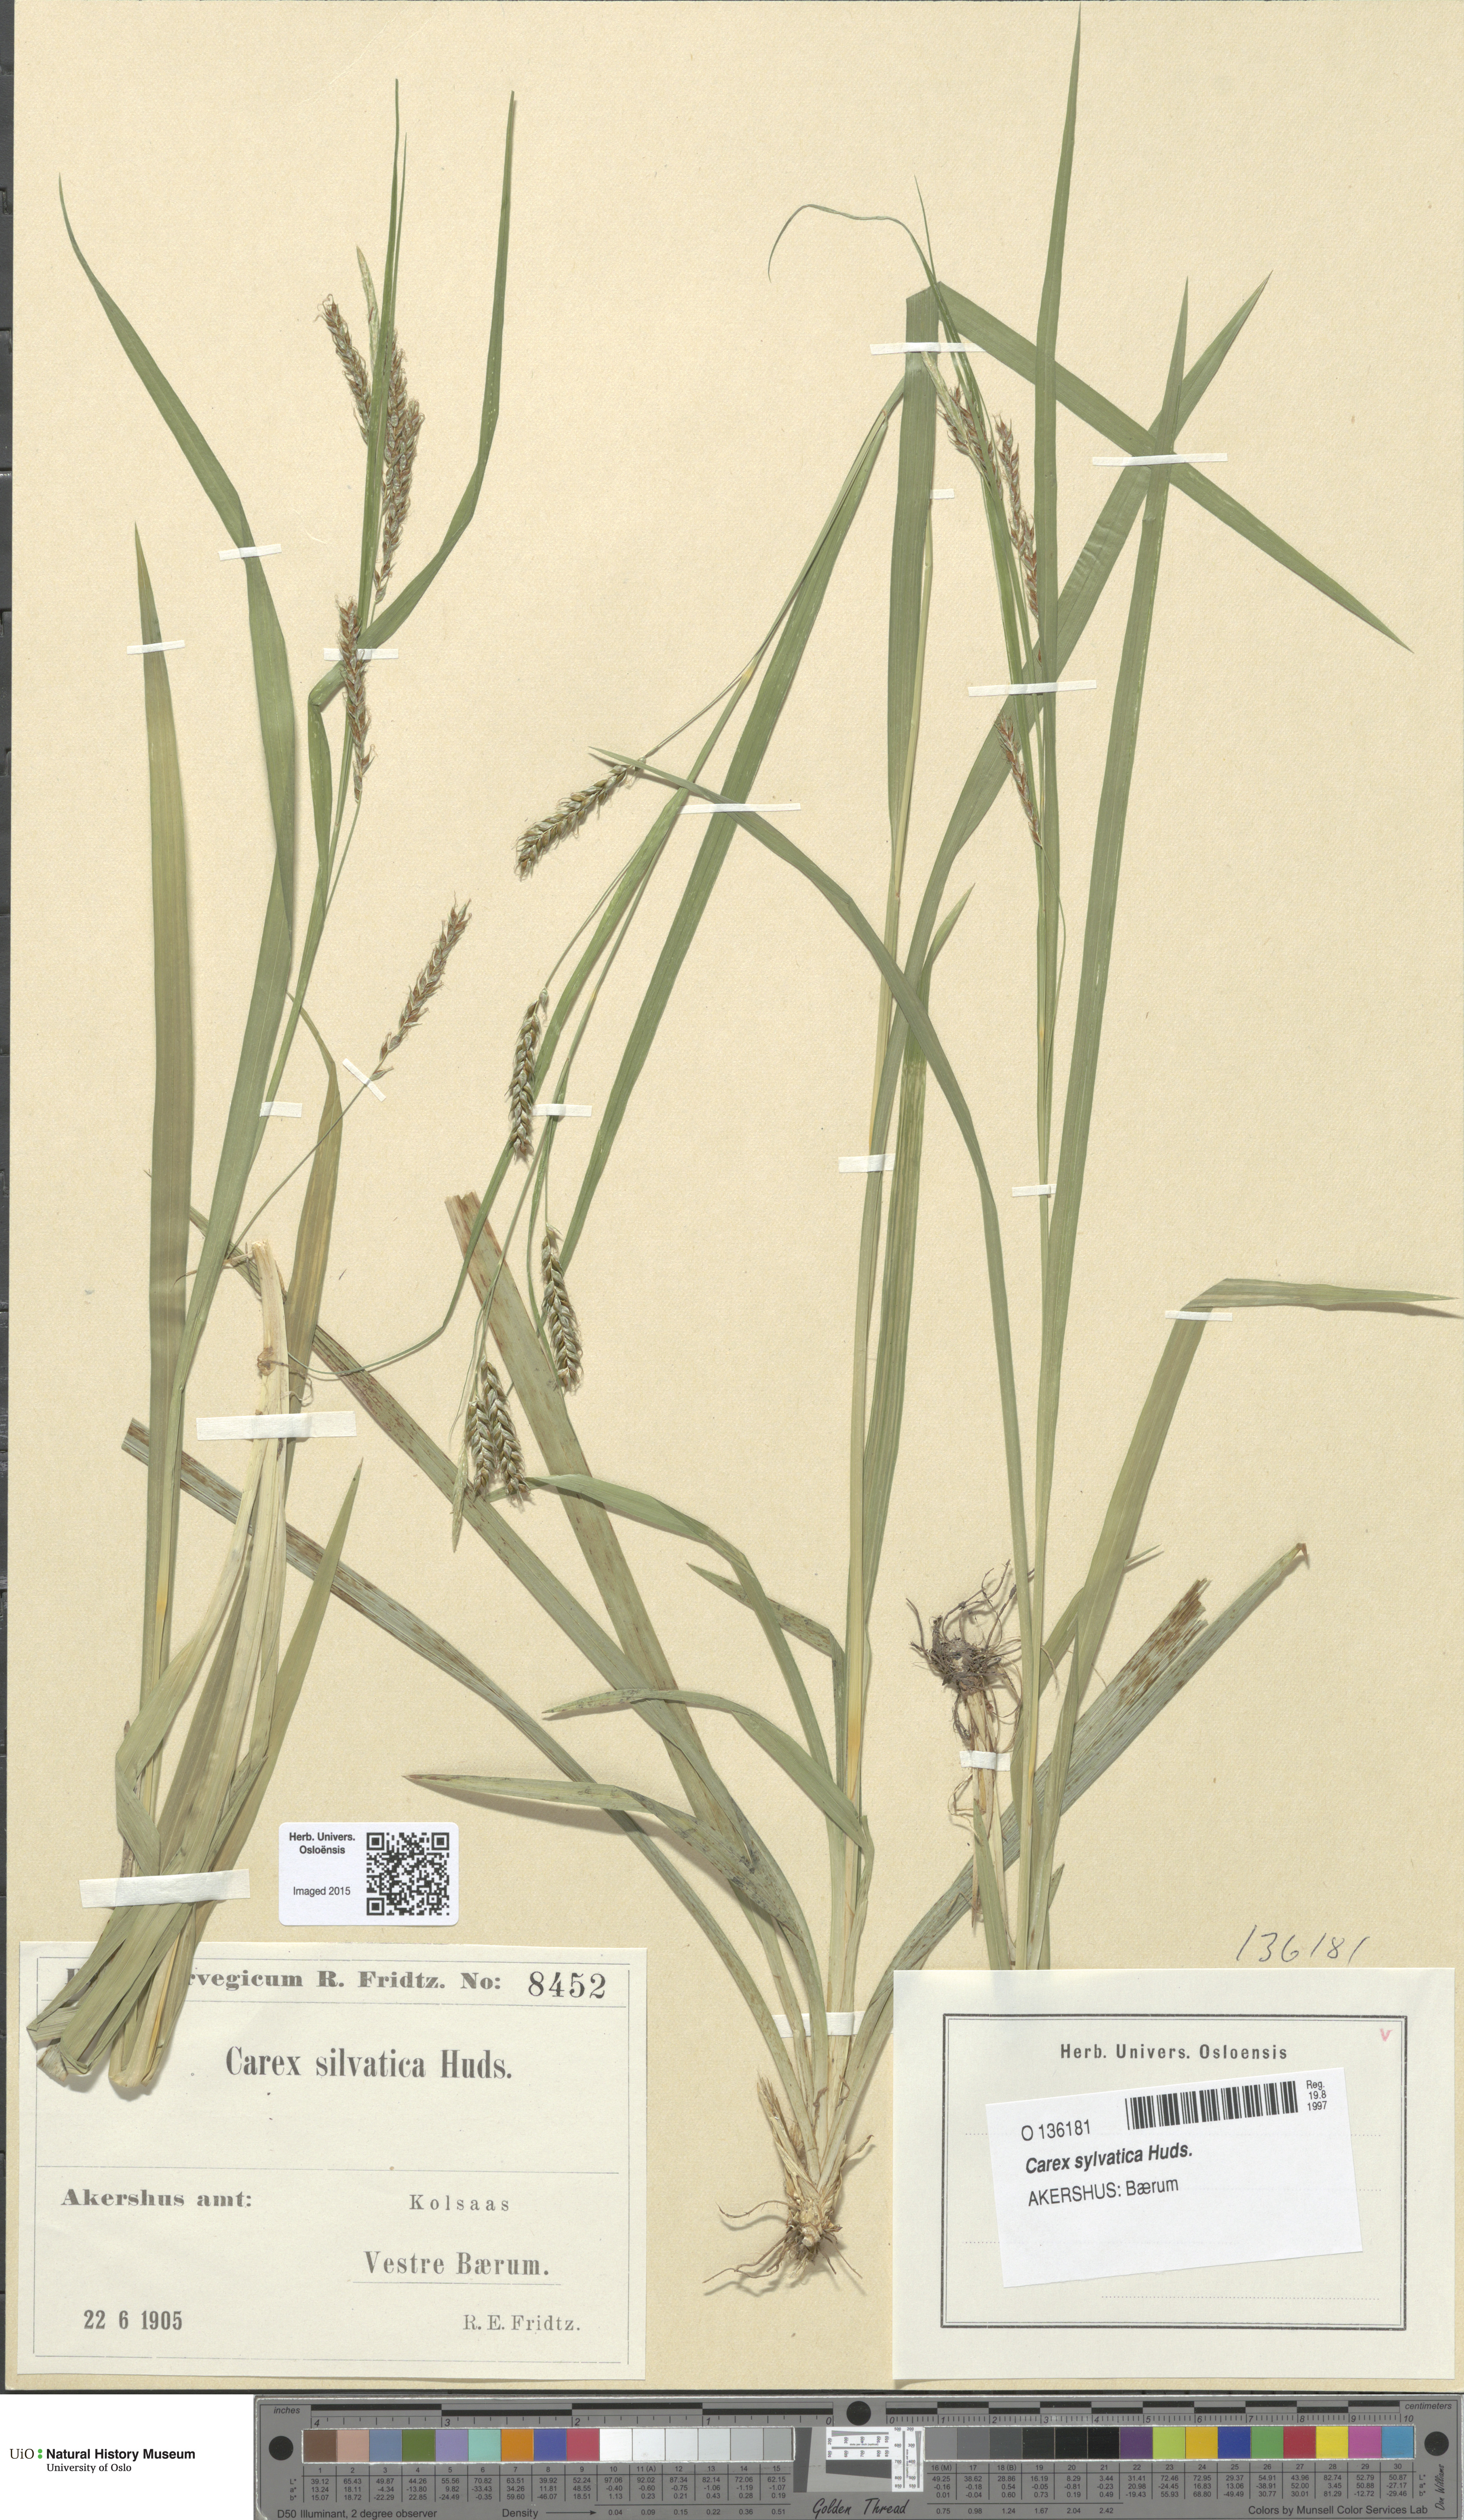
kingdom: Plantae
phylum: Tracheophyta
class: Liliopsida
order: Poales
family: Cyperaceae
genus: Carex
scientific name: Carex sylvatica
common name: Wood-sedge
